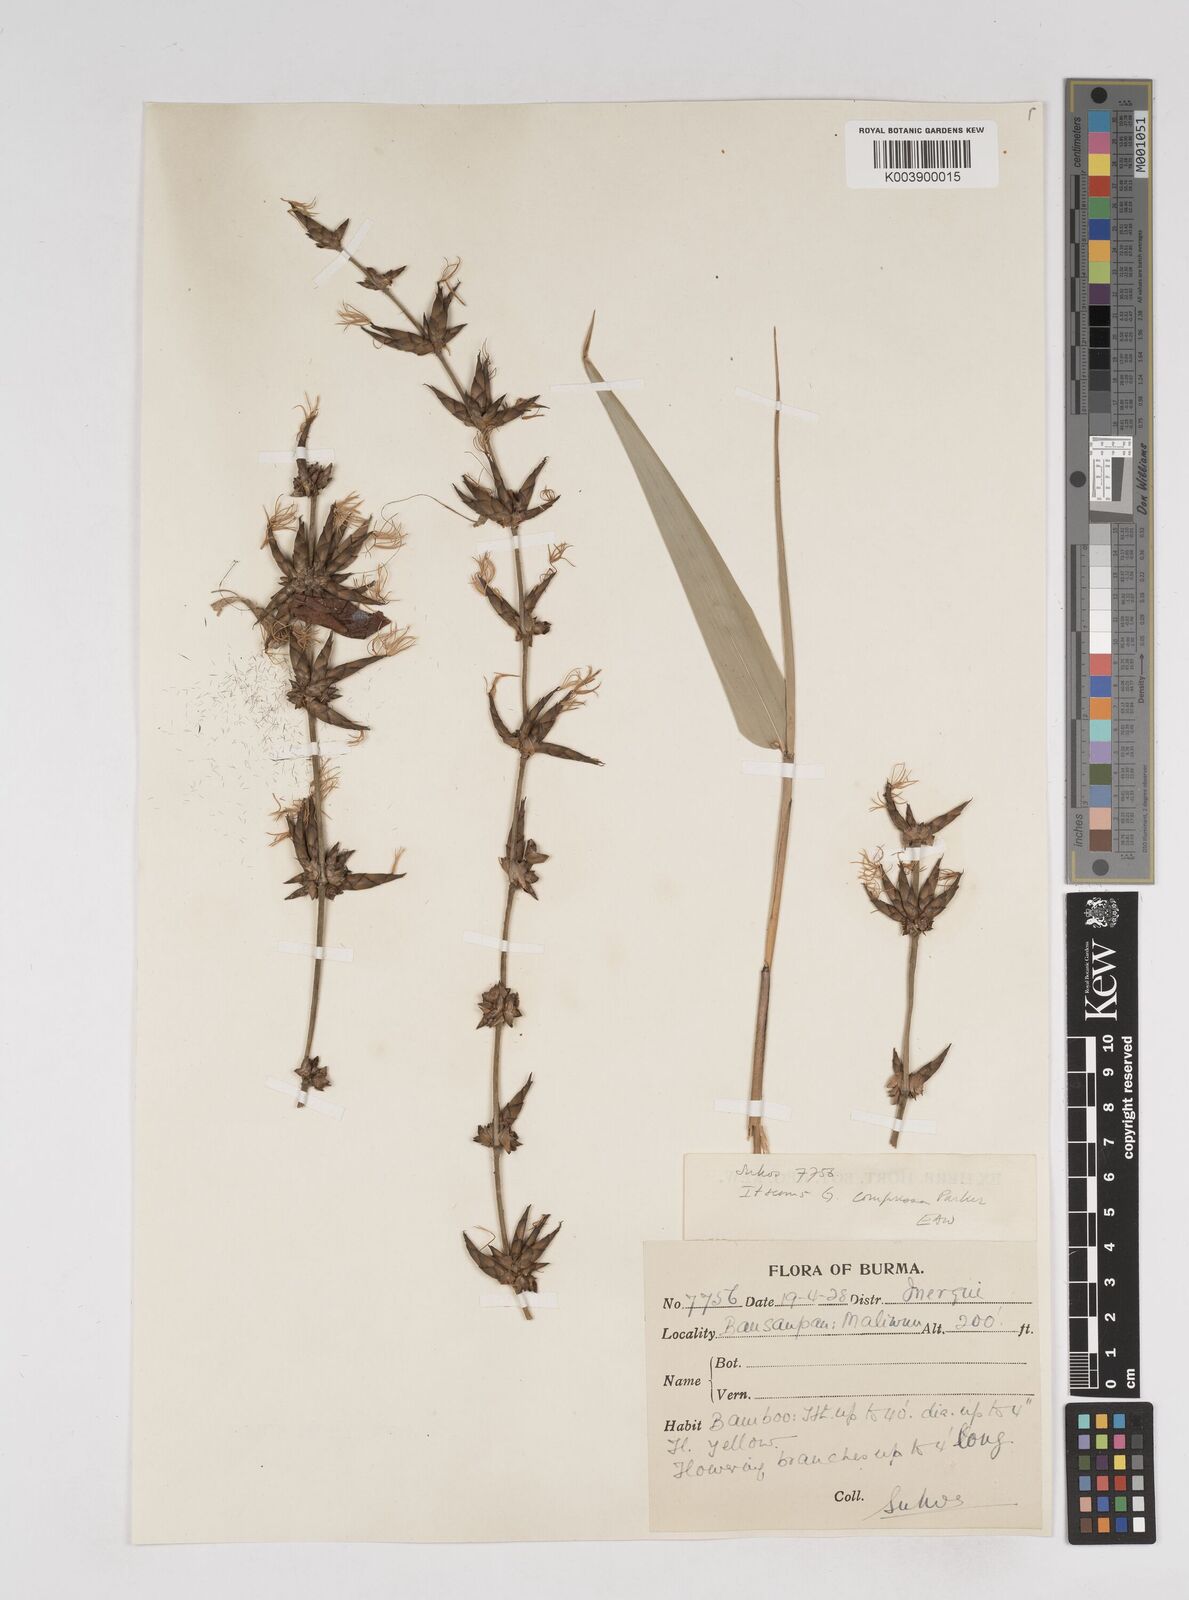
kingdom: Plantae
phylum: Tracheophyta
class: Liliopsida
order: Poales
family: Poaceae
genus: Gigantochloa
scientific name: Gigantochloa
